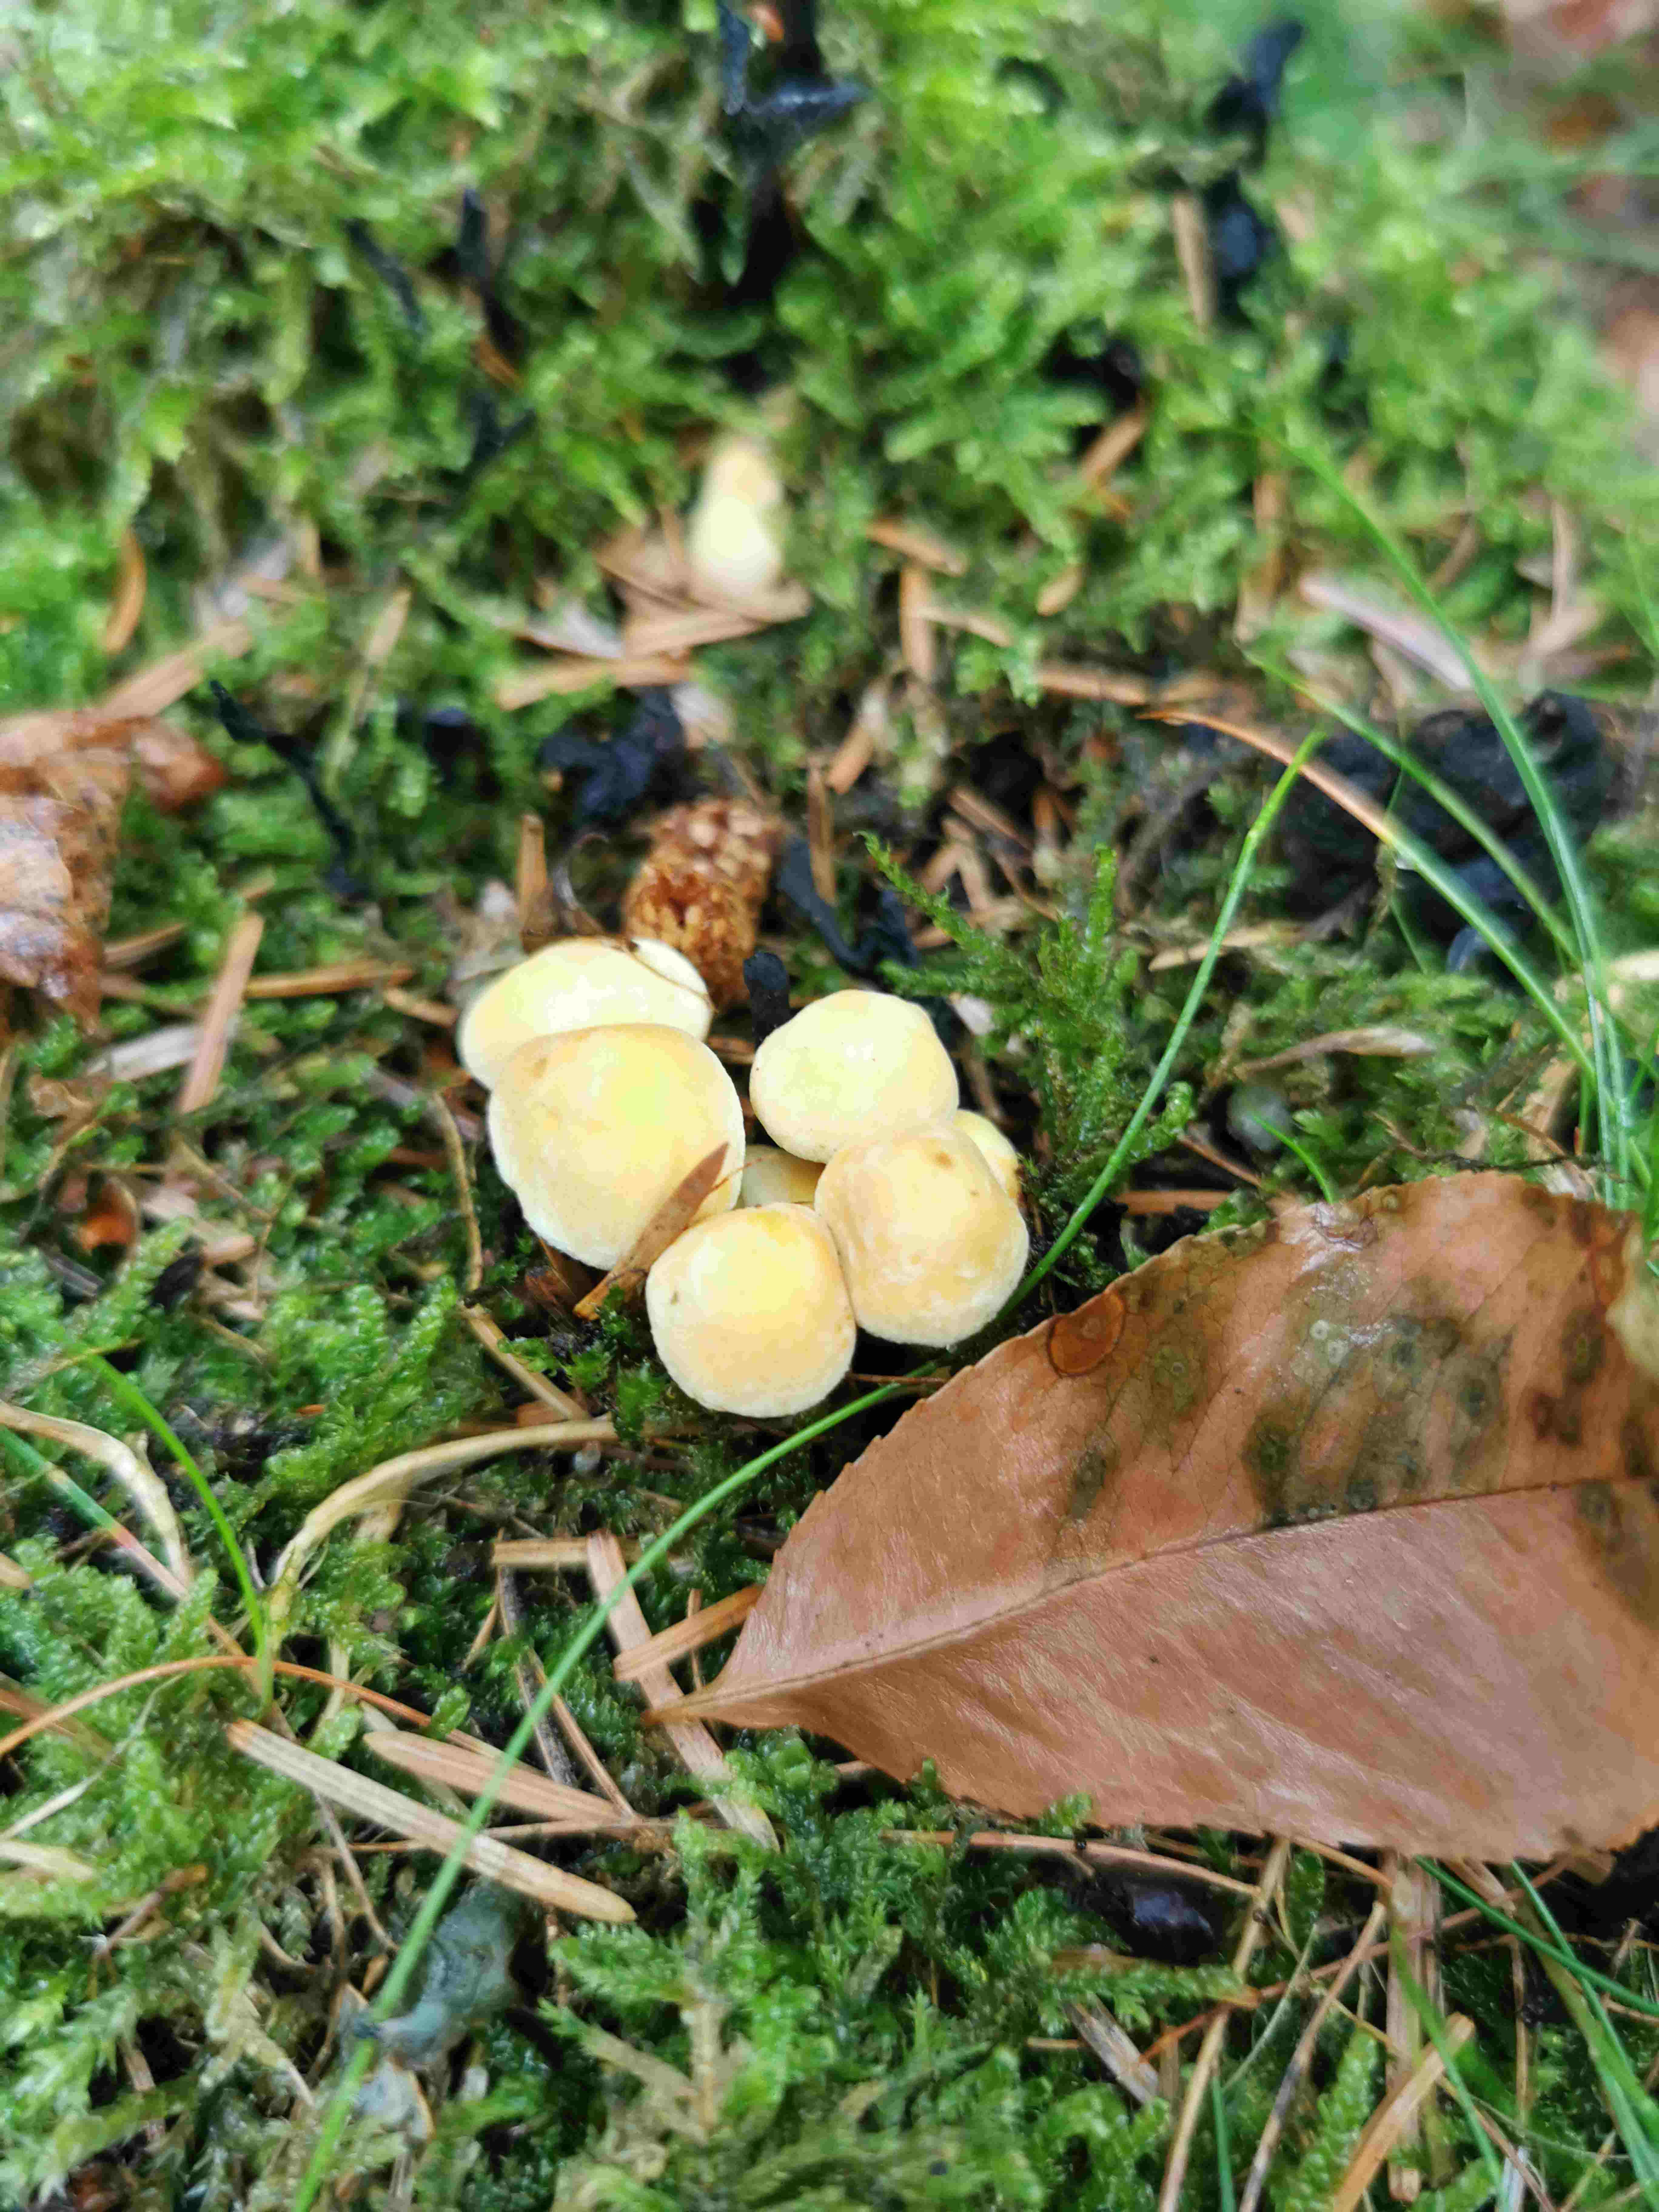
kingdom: Fungi
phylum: Basidiomycota
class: Agaricomycetes
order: Agaricales
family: Strophariaceae
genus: Hypholoma
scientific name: Hypholoma
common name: svovlhat
